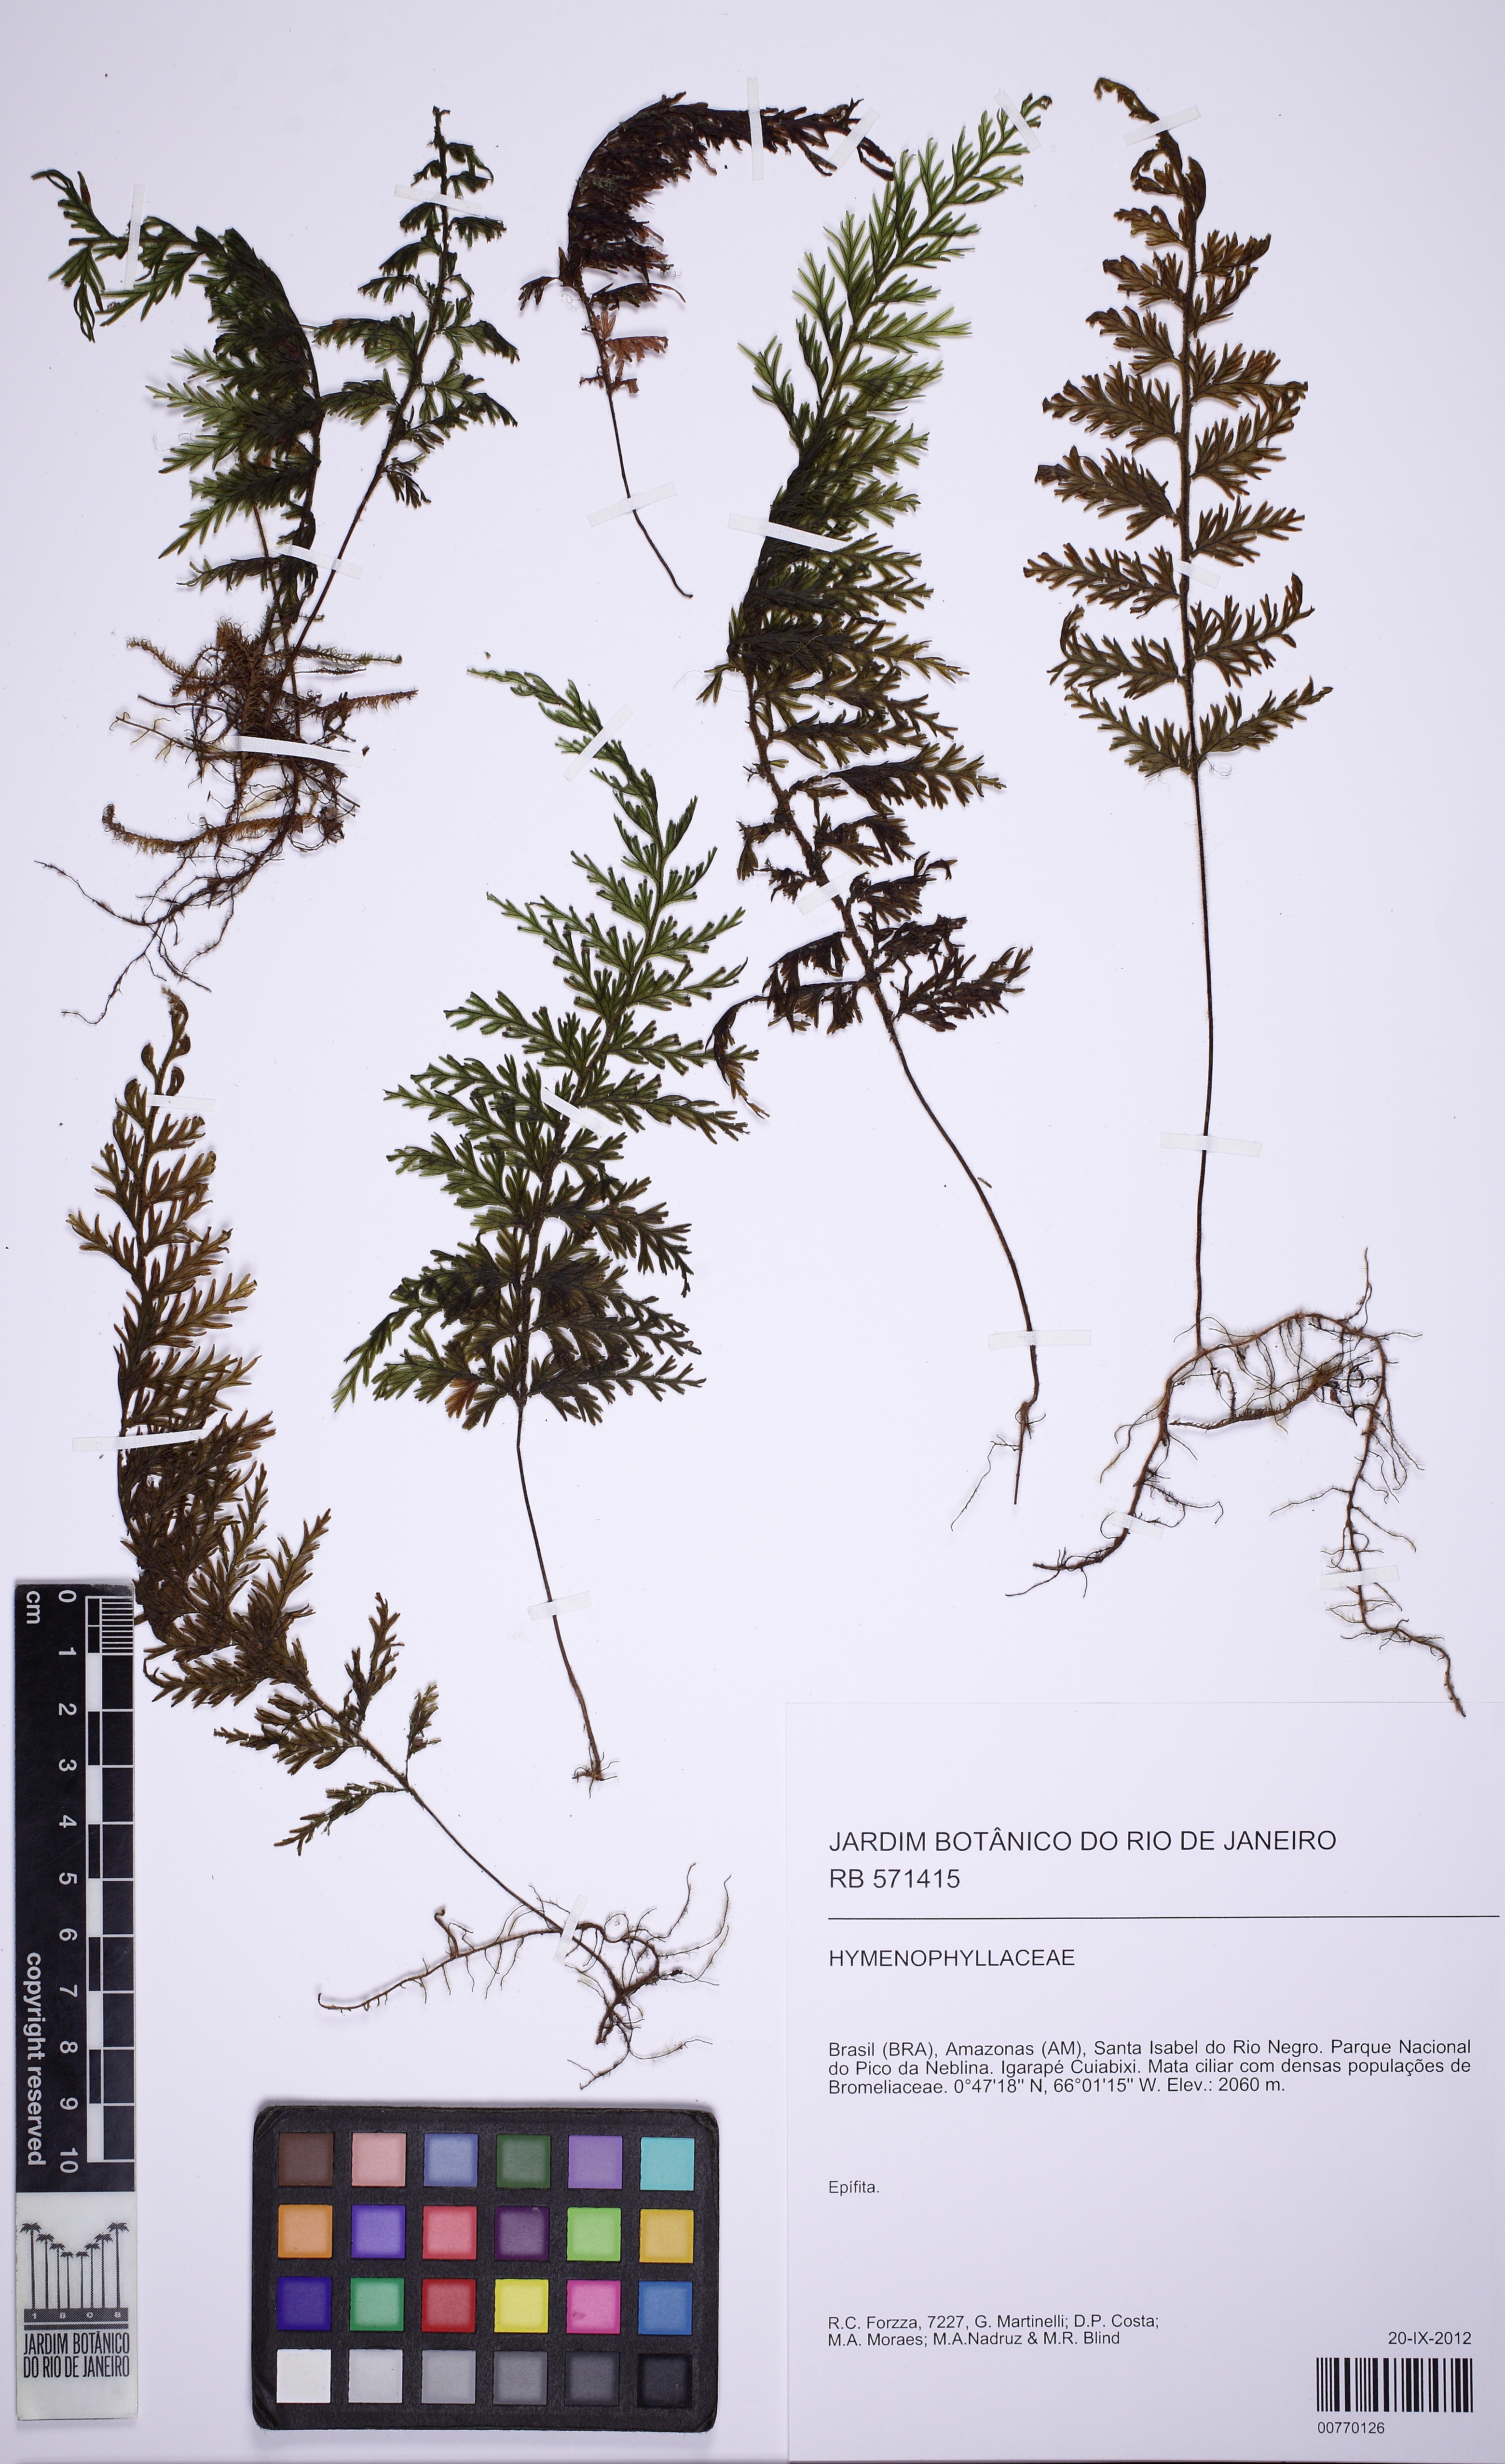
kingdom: Plantae
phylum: Tracheophyta
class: Polypodiopsida
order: Hymenophyllales
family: Hymenophyllaceae
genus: Hymenophyllum
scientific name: Hymenophyllum lindenii
